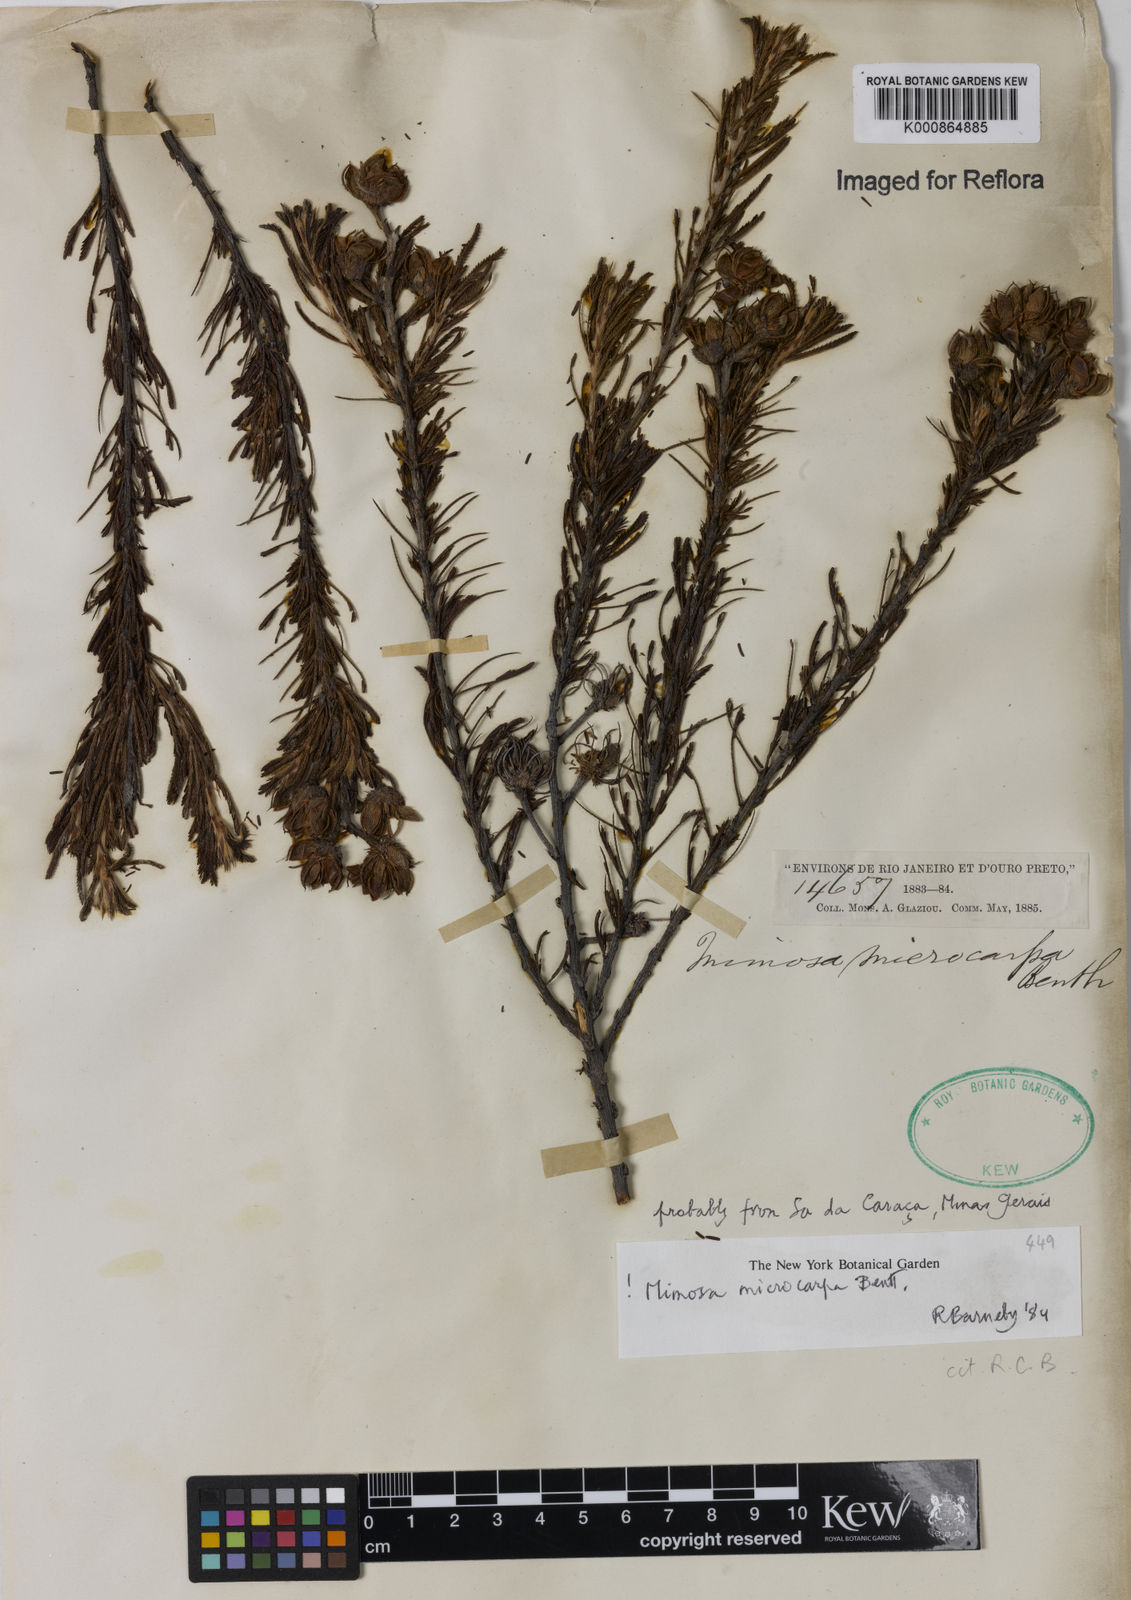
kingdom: Plantae
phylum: Tracheophyta
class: Magnoliopsida
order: Fabales
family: Fabaceae
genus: Mimosa
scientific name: Mimosa microcarpa
